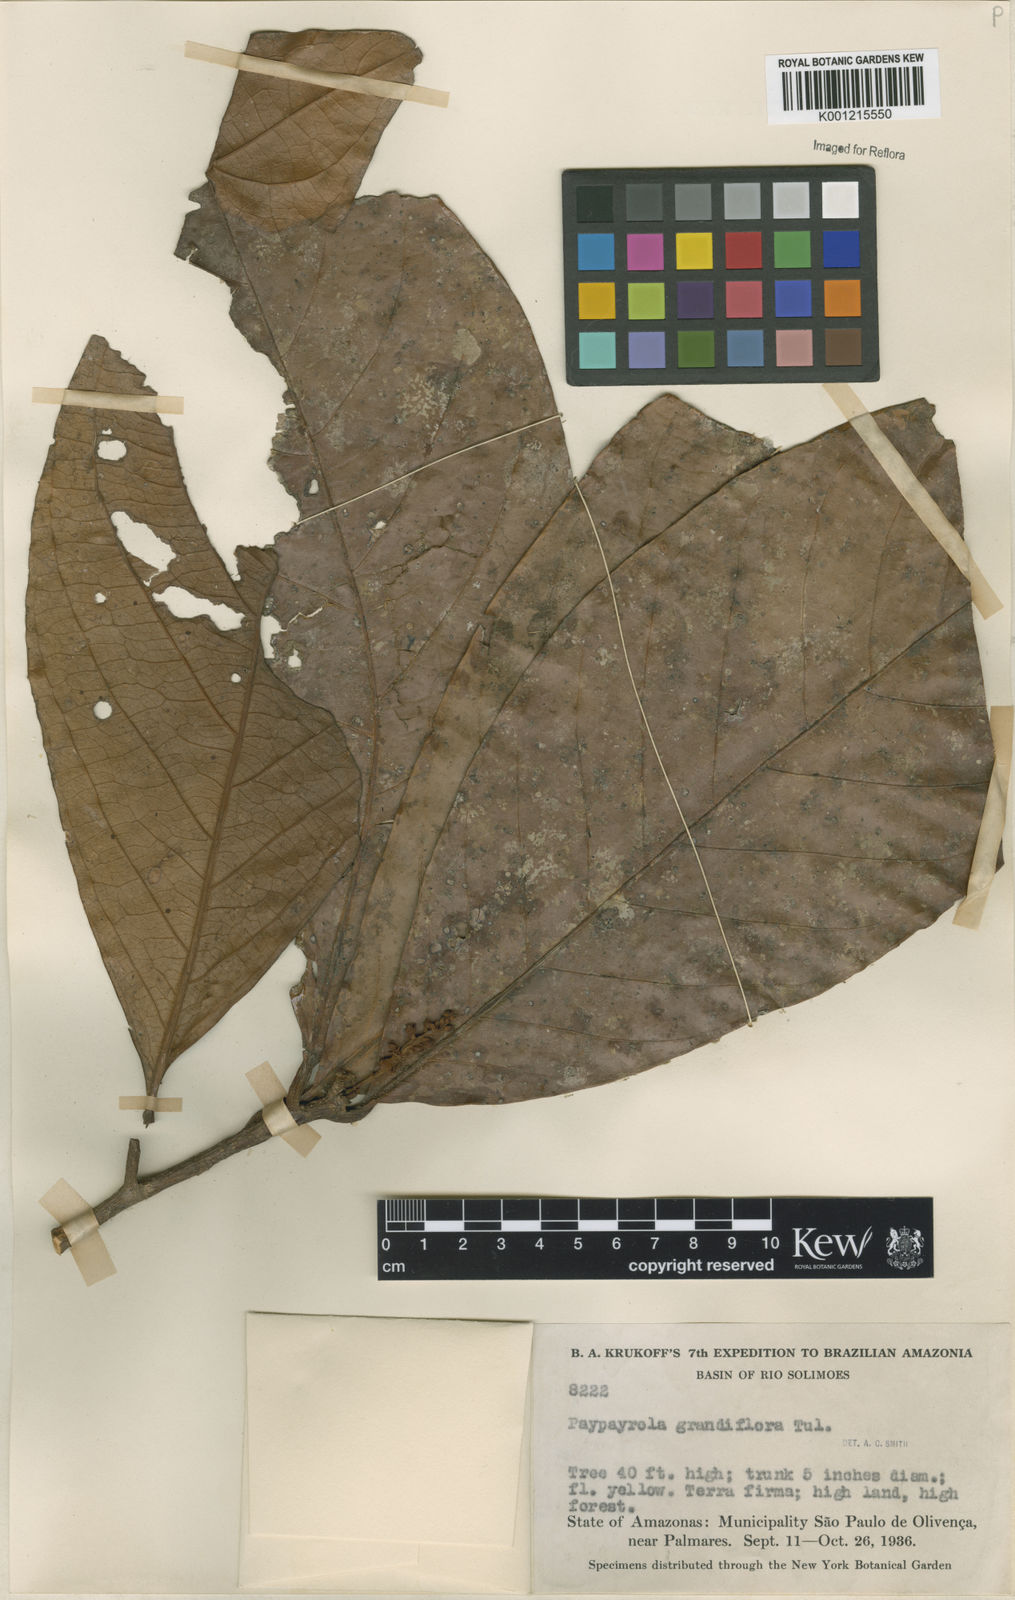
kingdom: Plantae
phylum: Tracheophyta
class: Magnoliopsida
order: Malpighiales
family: Violaceae
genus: Paypayrola
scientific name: Paypayrola grandiflora
